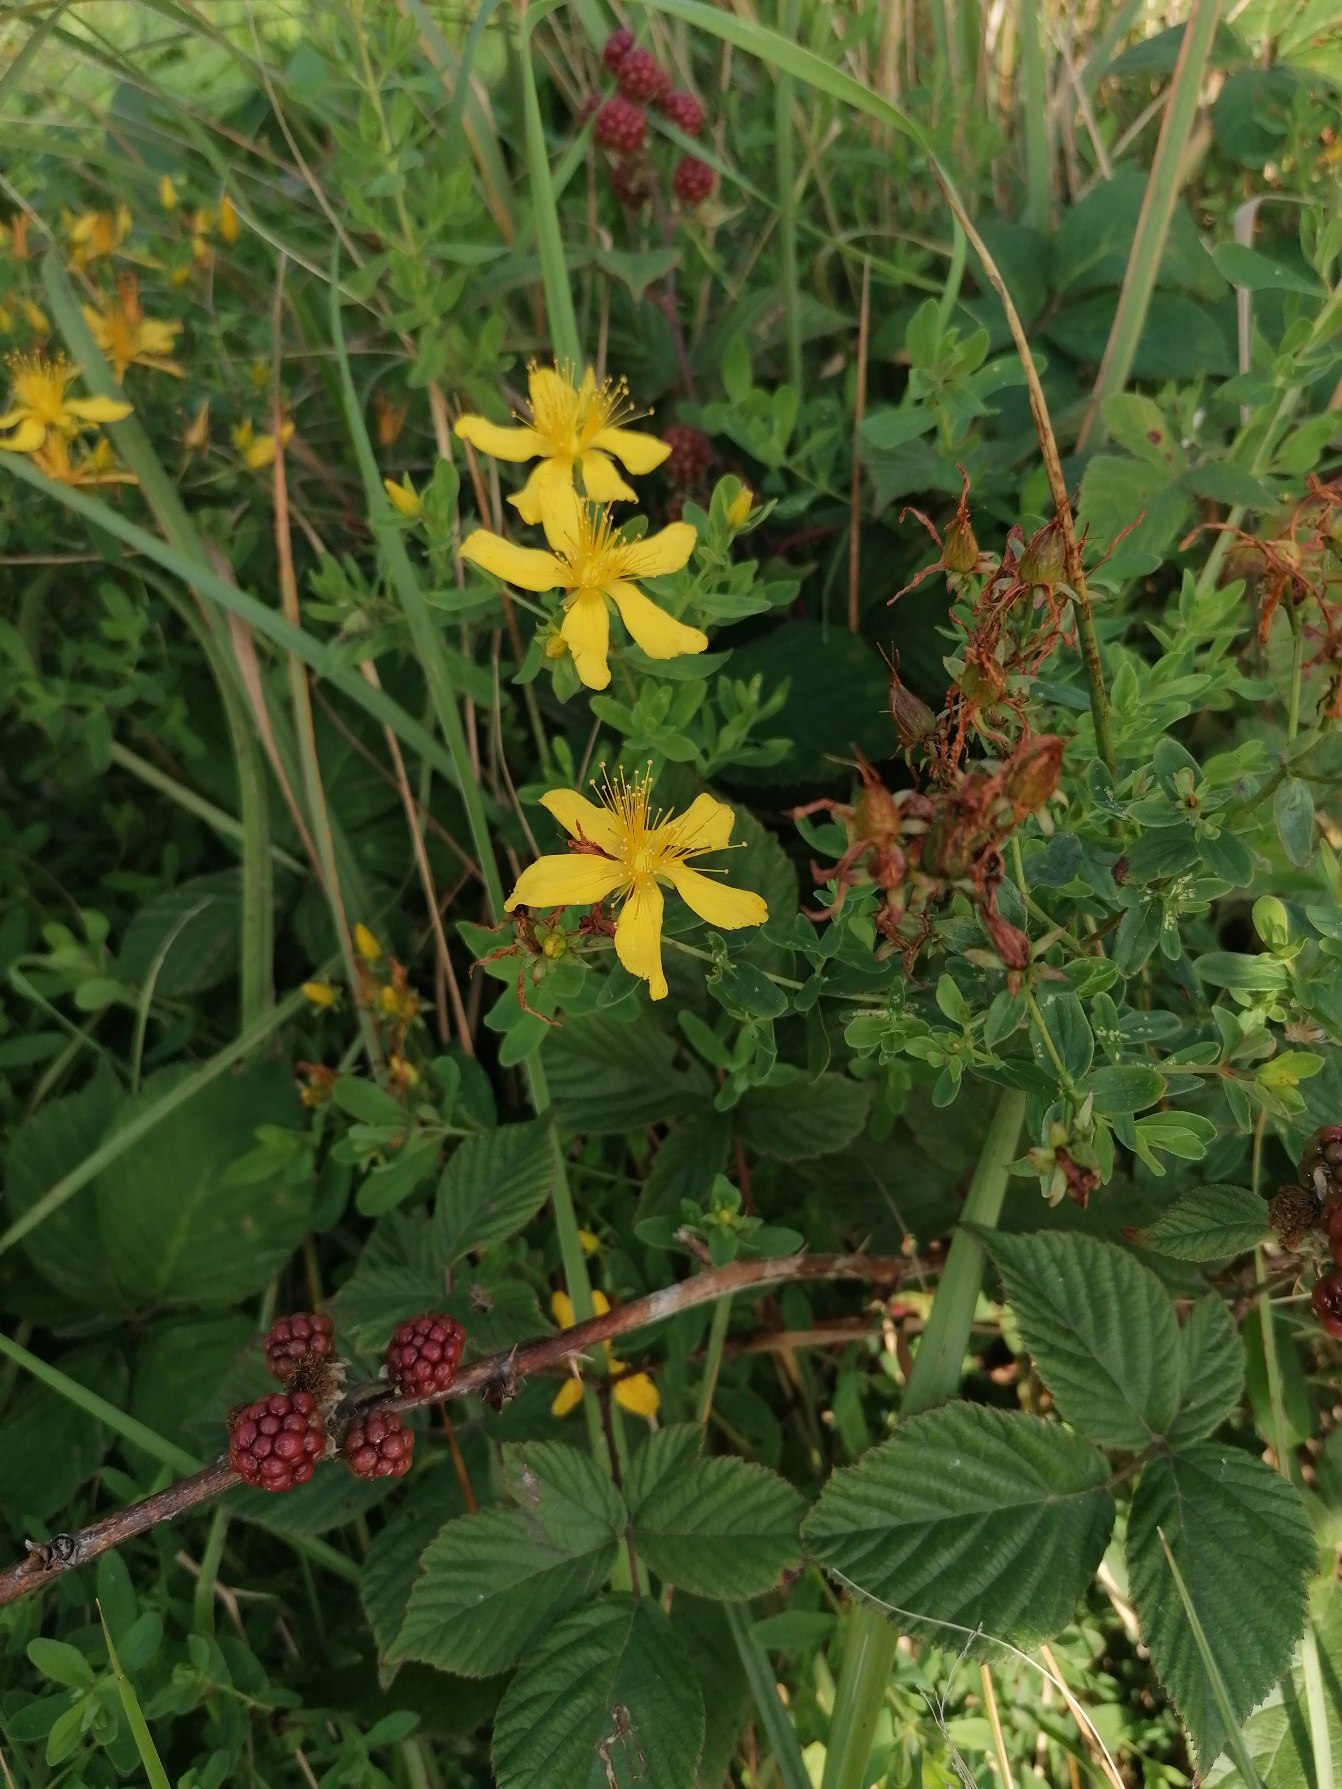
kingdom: Plantae
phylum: Tracheophyta
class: Magnoliopsida
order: Malpighiales
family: Hypericaceae
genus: Hypericum
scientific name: Hypericum perforatum
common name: Prikbladet perikon
